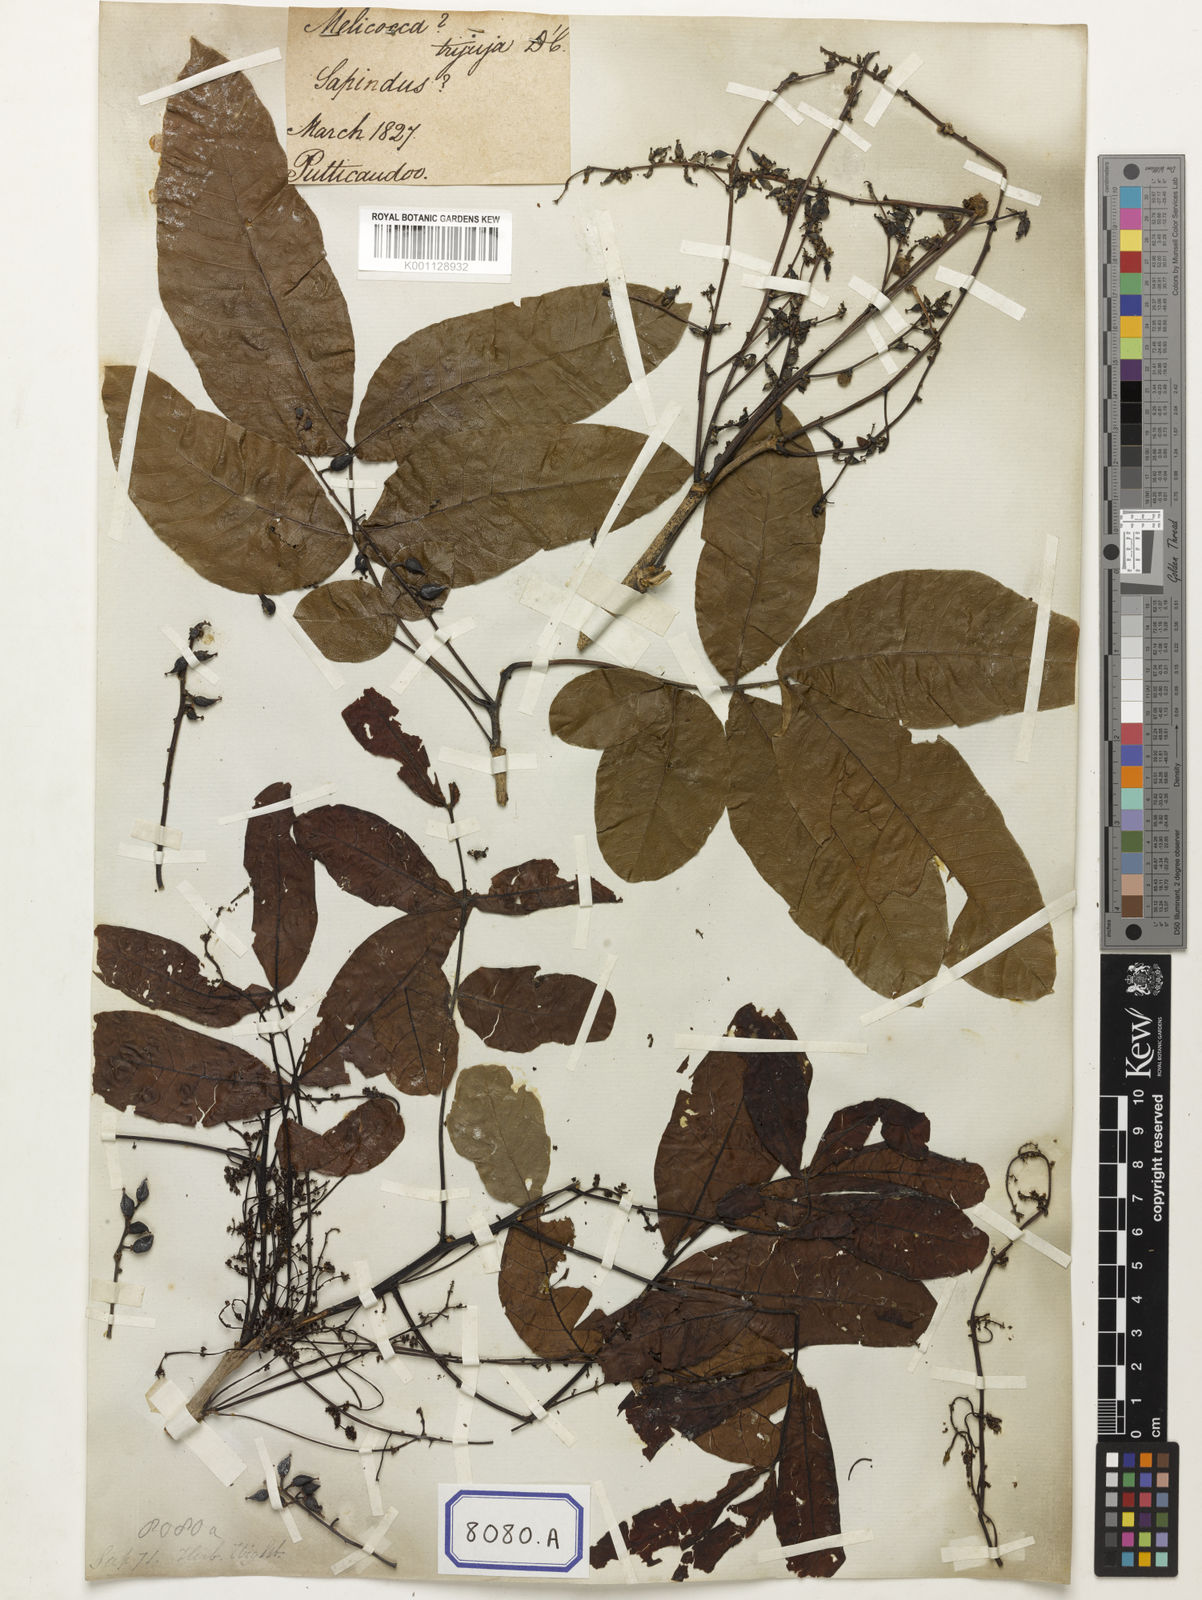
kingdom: Plantae
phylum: Tracheophyta
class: Magnoliopsida
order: Sapindales
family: Sapindaceae
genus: Schleichera
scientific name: Schleichera oleosa
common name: Malay lactree
